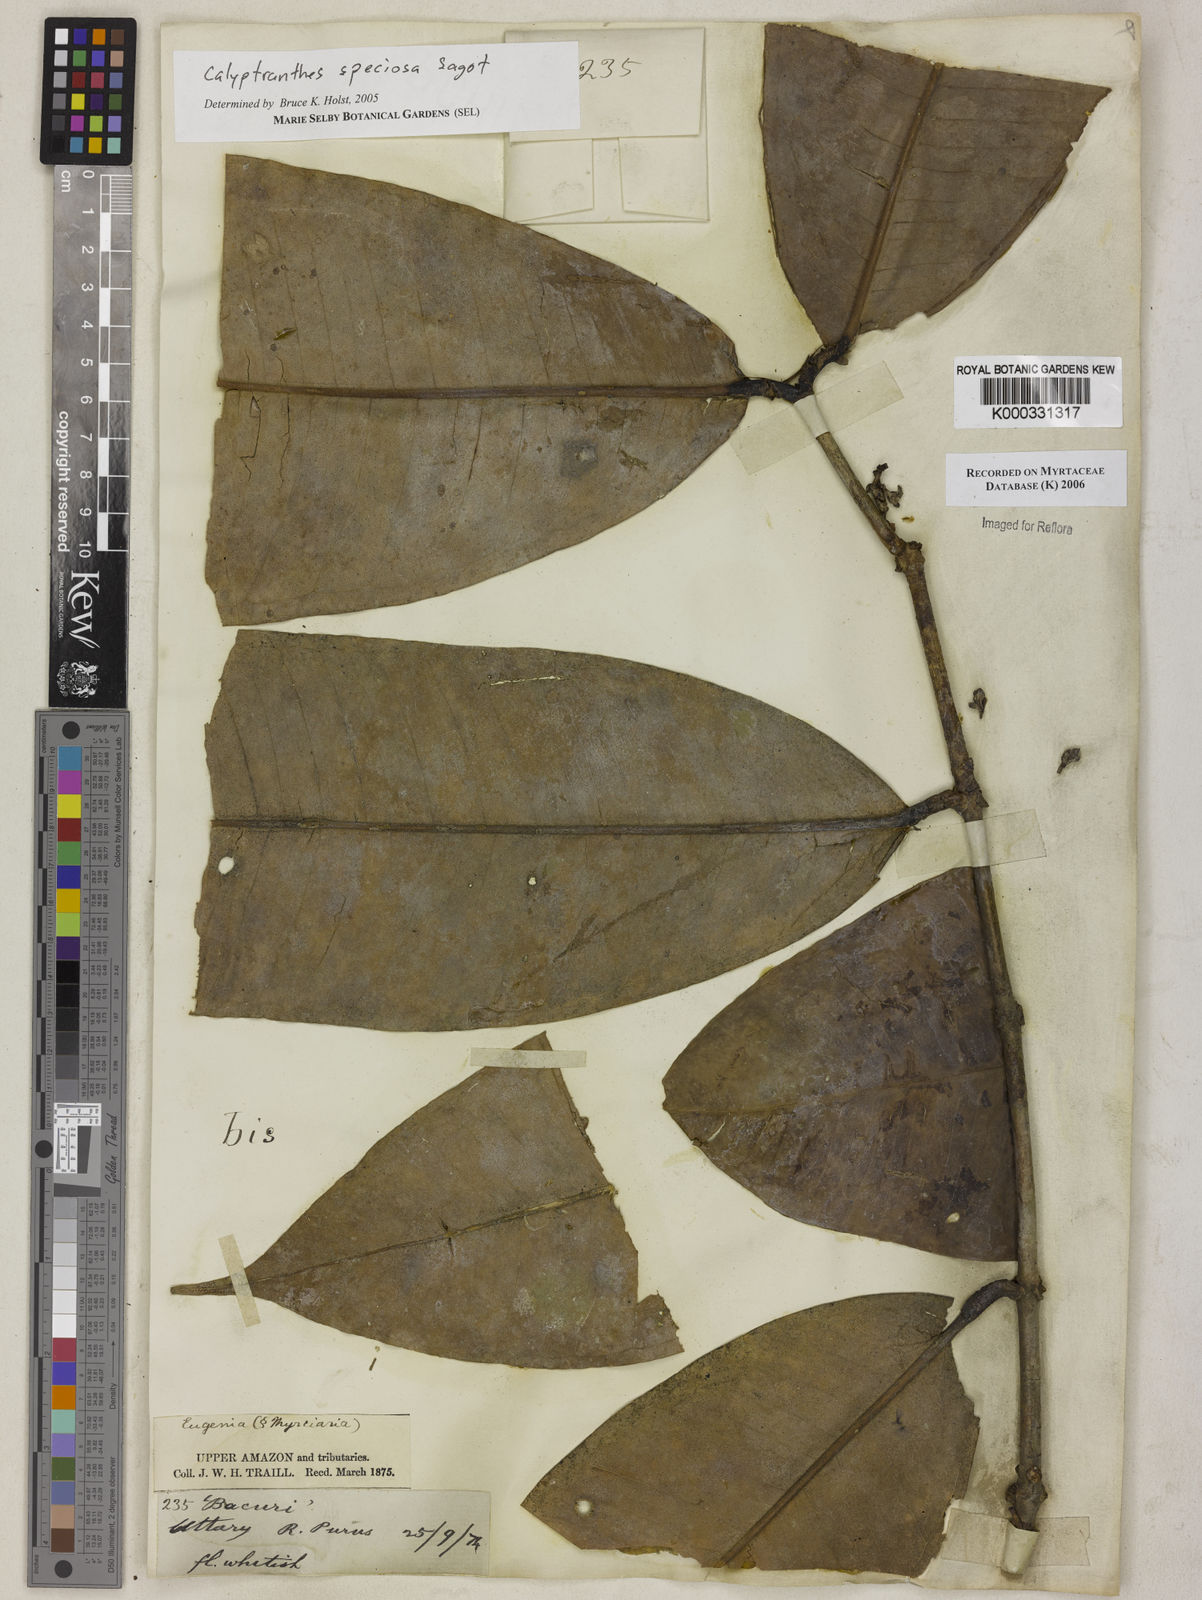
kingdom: Plantae
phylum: Tracheophyta
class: Magnoliopsida
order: Myrtales
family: Myrtaceae
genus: Myrcia
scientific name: Myrcia neospeciosa
